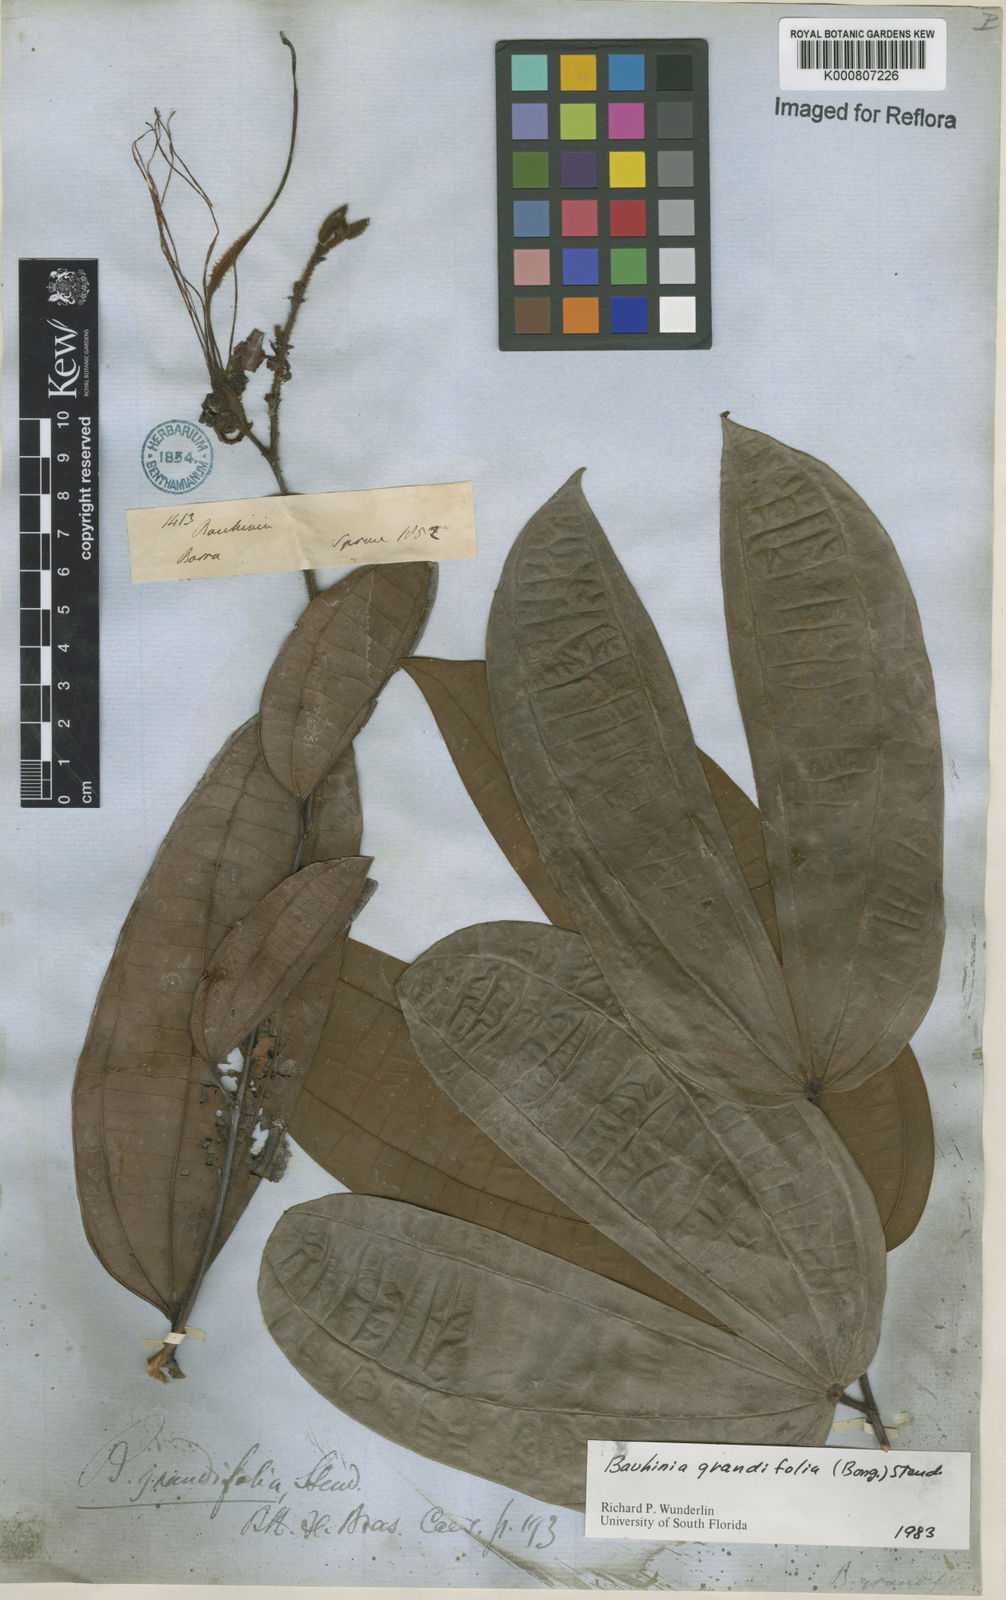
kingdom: Plantae
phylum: Tracheophyta
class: Magnoliopsida
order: Fabales
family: Fabaceae
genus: Bauhinia
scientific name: Bauhinia
